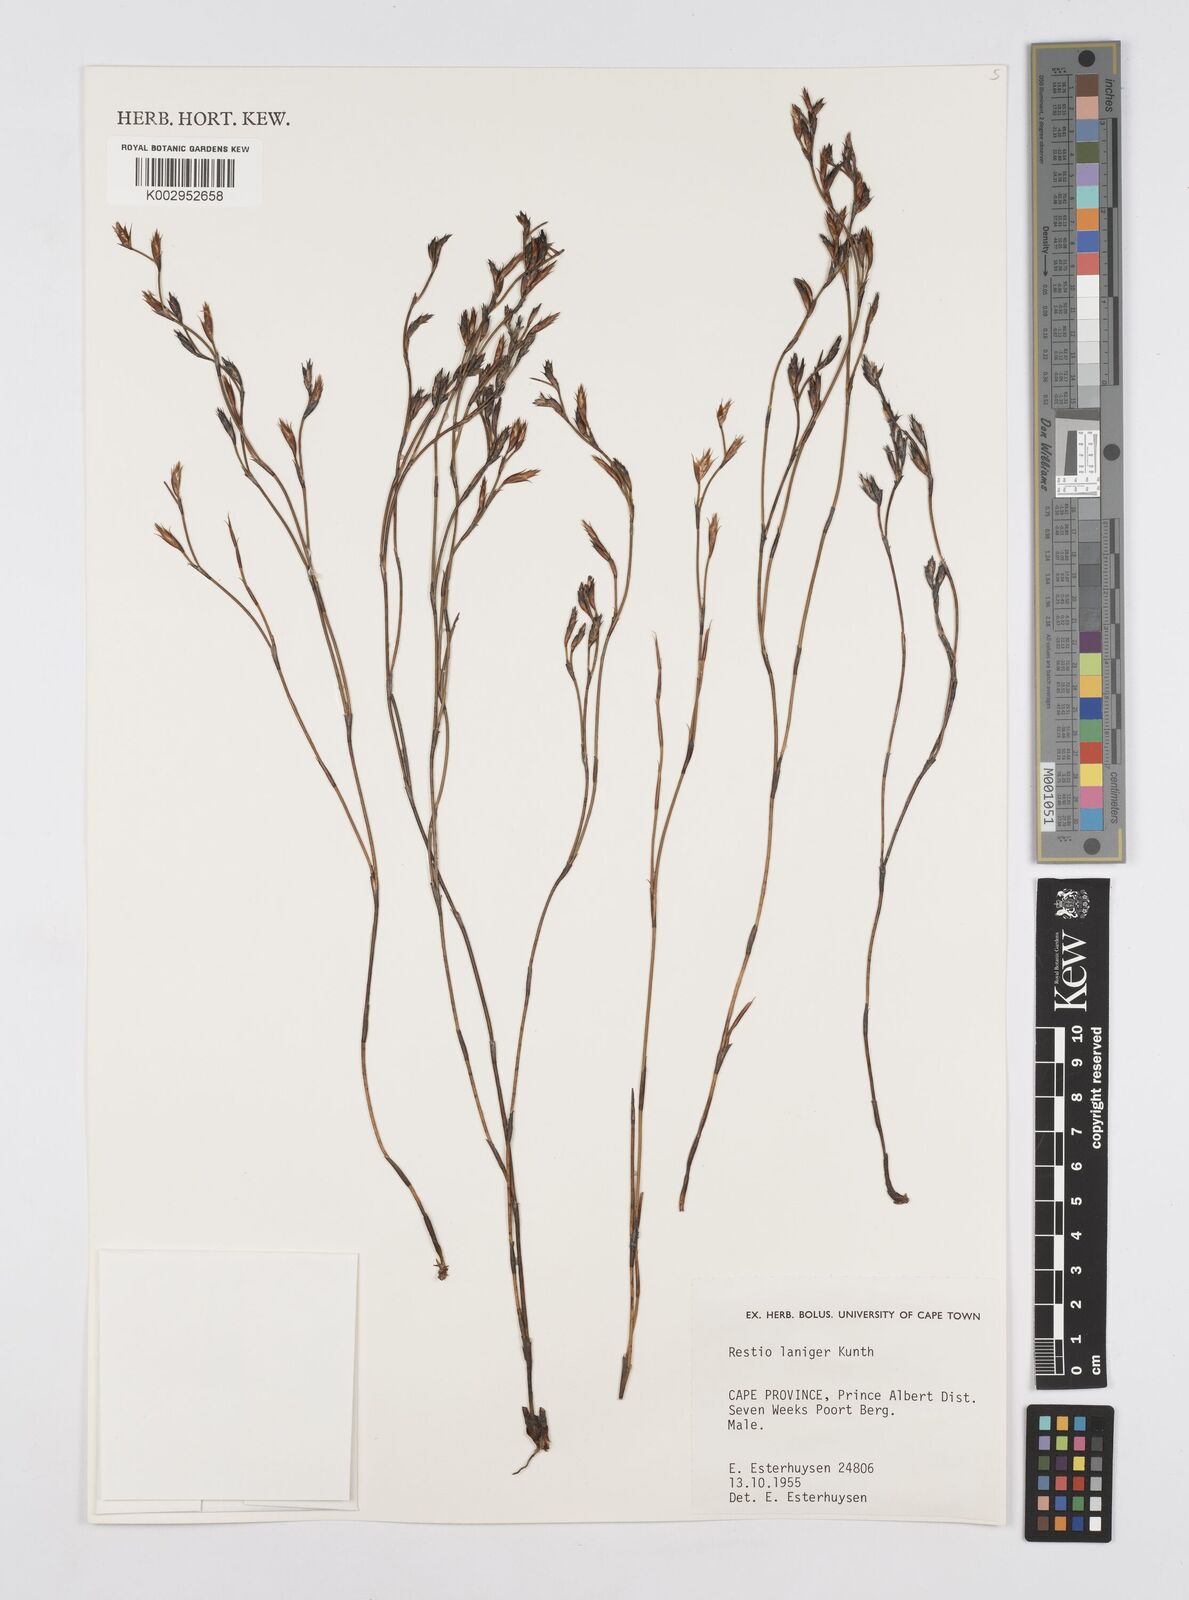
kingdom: Plantae
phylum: Tracheophyta
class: Liliopsida
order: Poales
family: Restionaceae
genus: Restio
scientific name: Restio laniger
